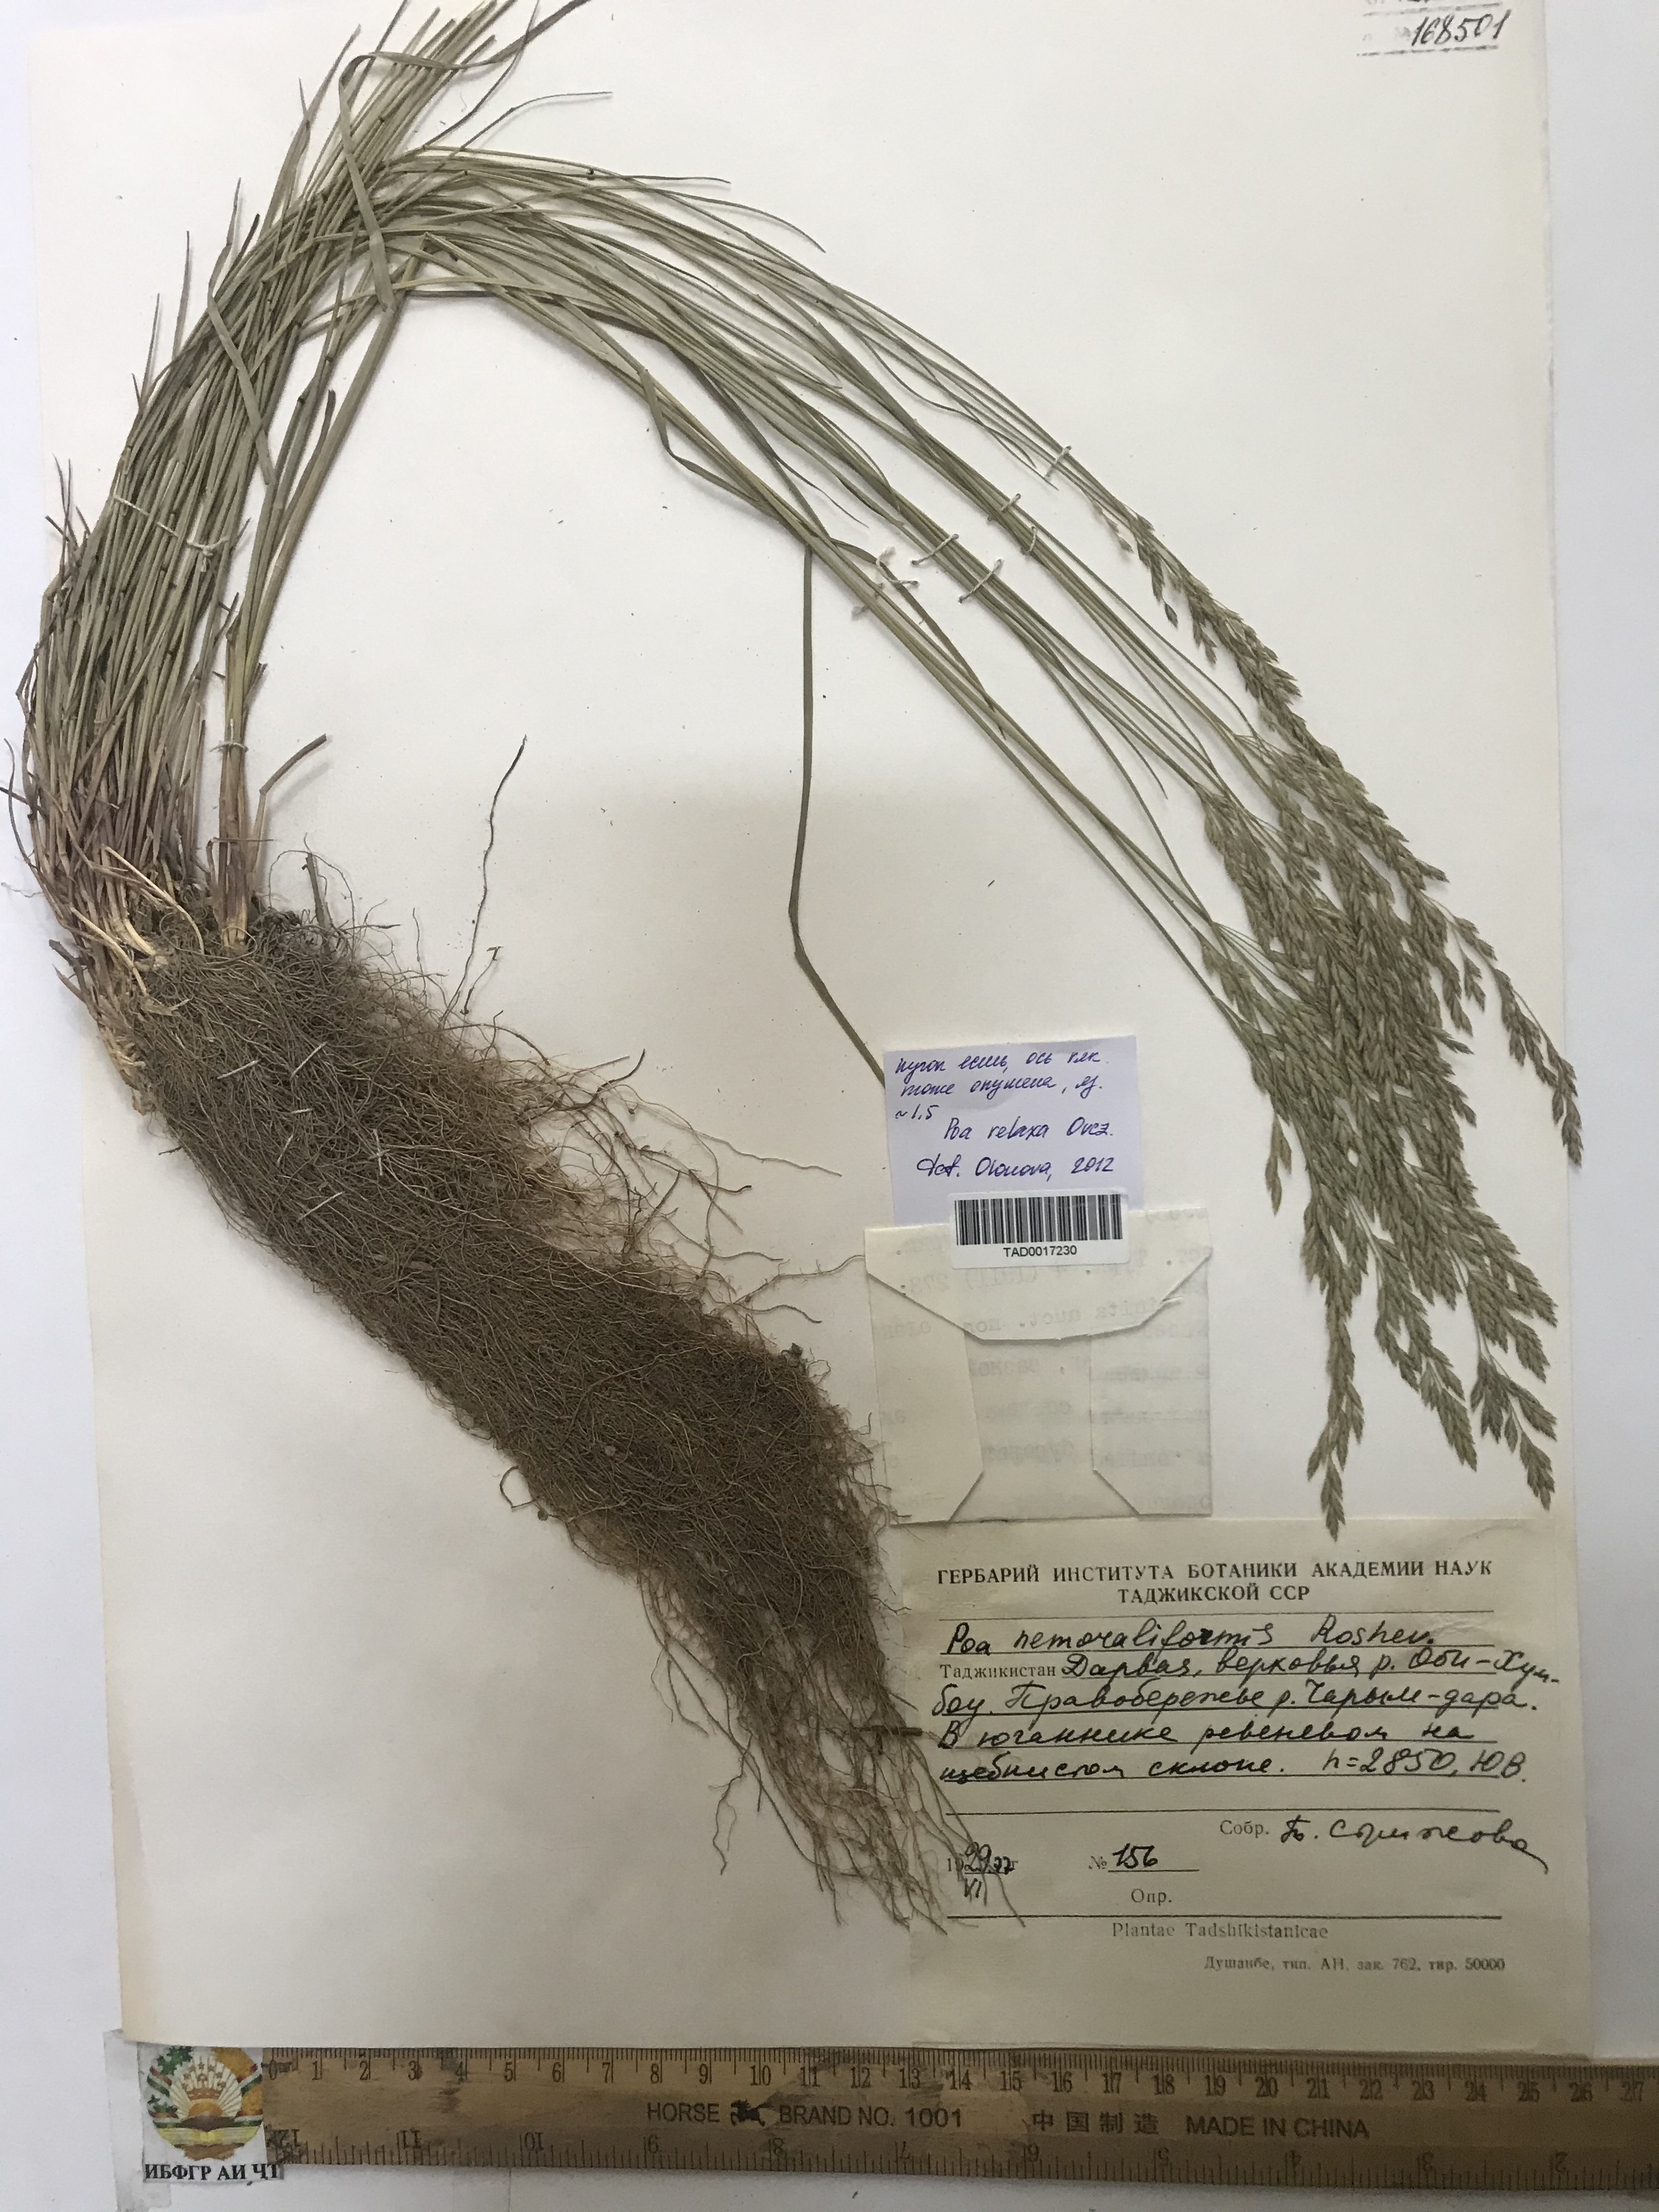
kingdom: Plantae
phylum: Tracheophyta
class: Liliopsida
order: Poales
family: Poaceae
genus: Poa
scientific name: Poa urssulensis
